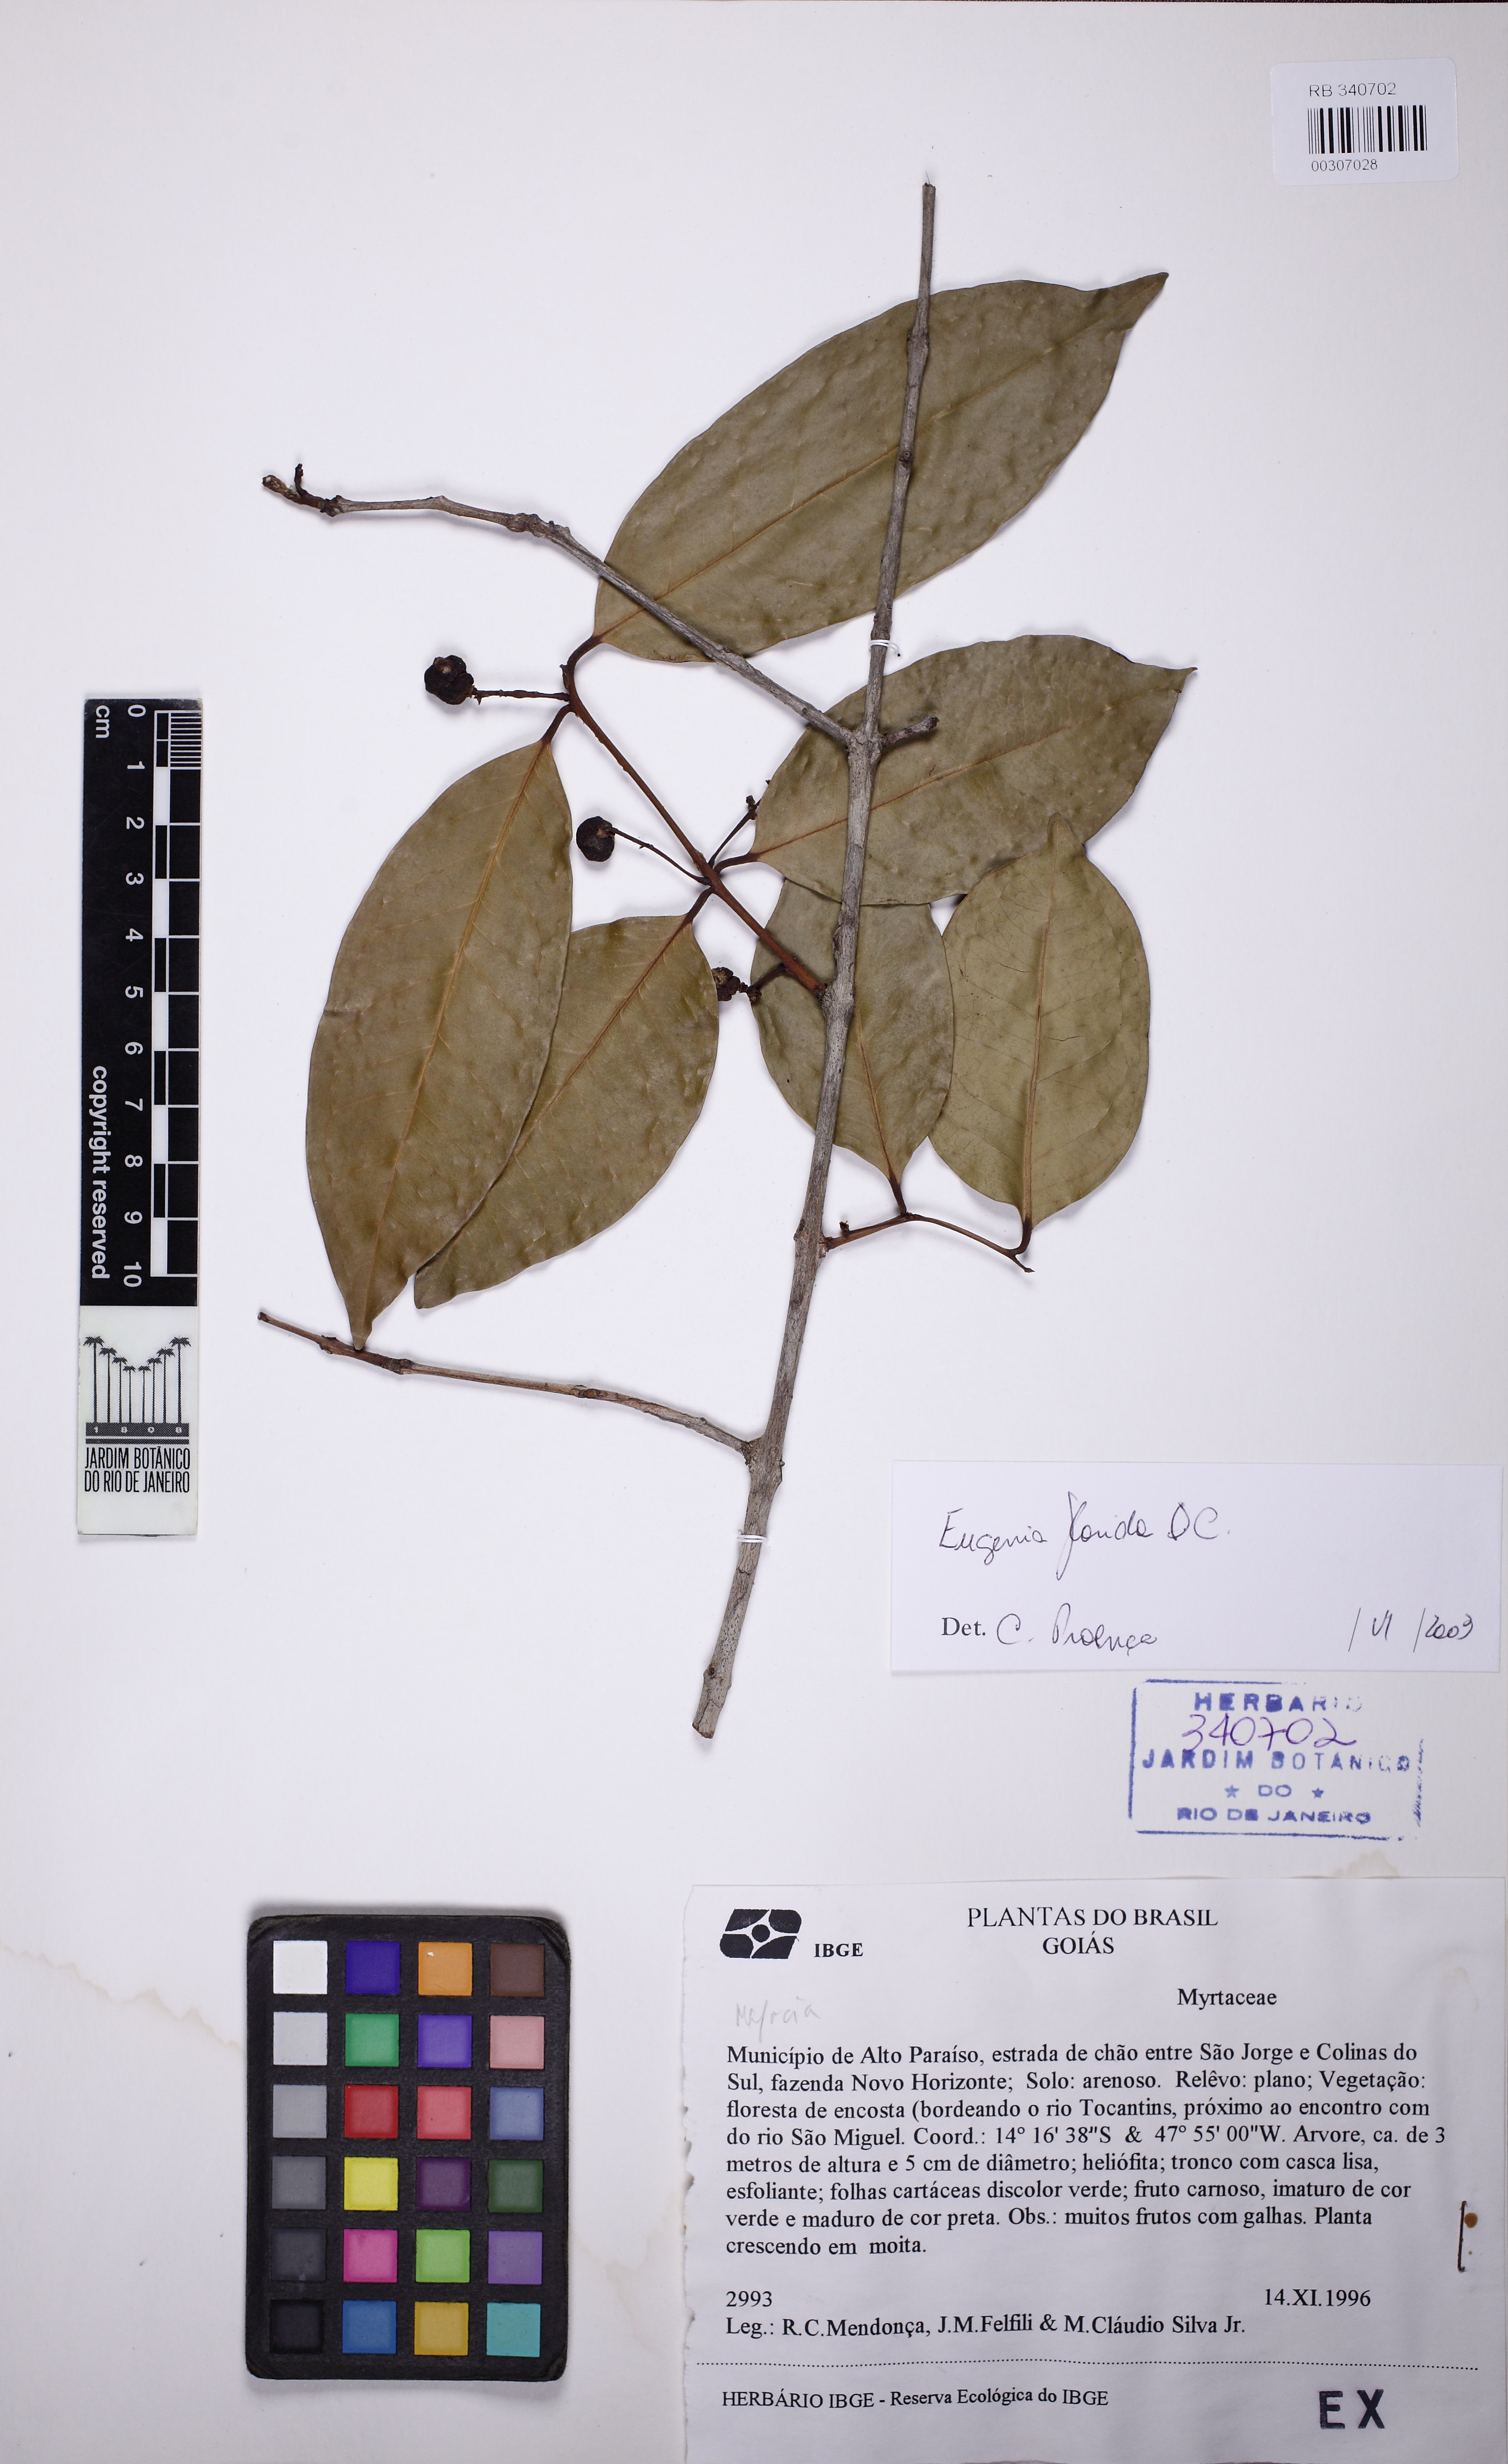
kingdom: Plantae
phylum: Tracheophyta
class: Magnoliopsida
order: Myrtales
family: Myrtaceae
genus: Eugenia
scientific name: Eugenia florida
